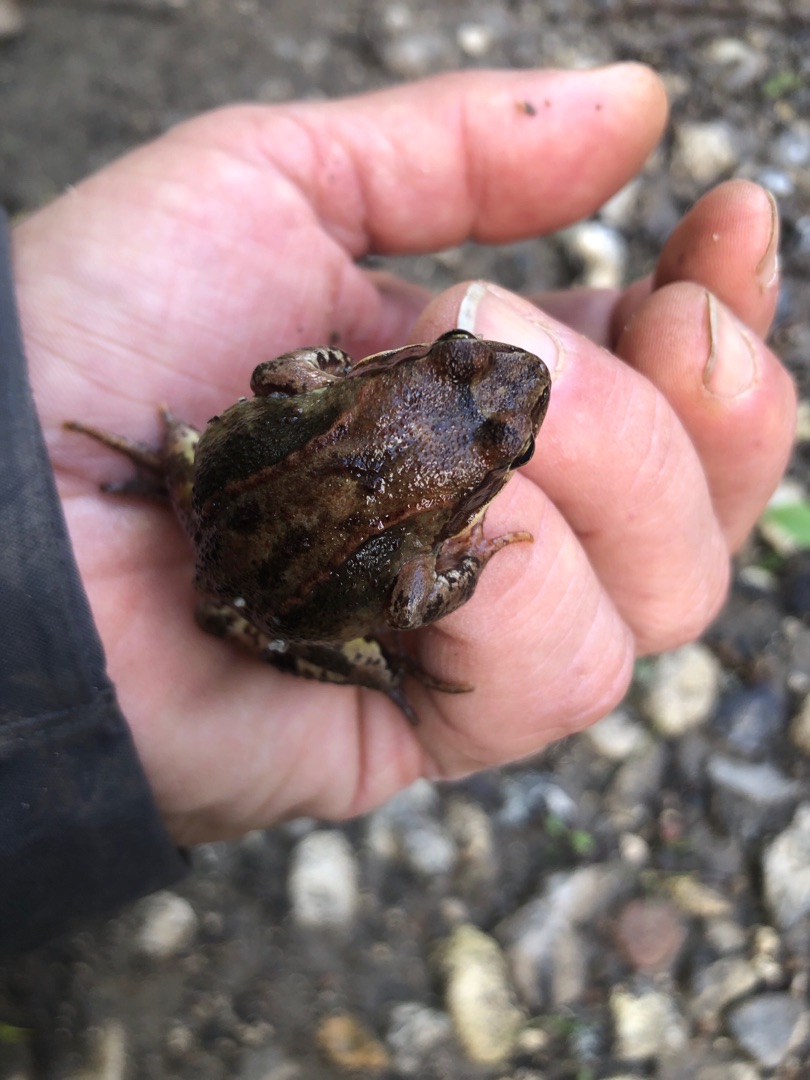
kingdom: Animalia
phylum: Chordata
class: Amphibia
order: Anura
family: Ranidae
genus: Rana
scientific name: Rana temporaria
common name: Butsnudet frø
